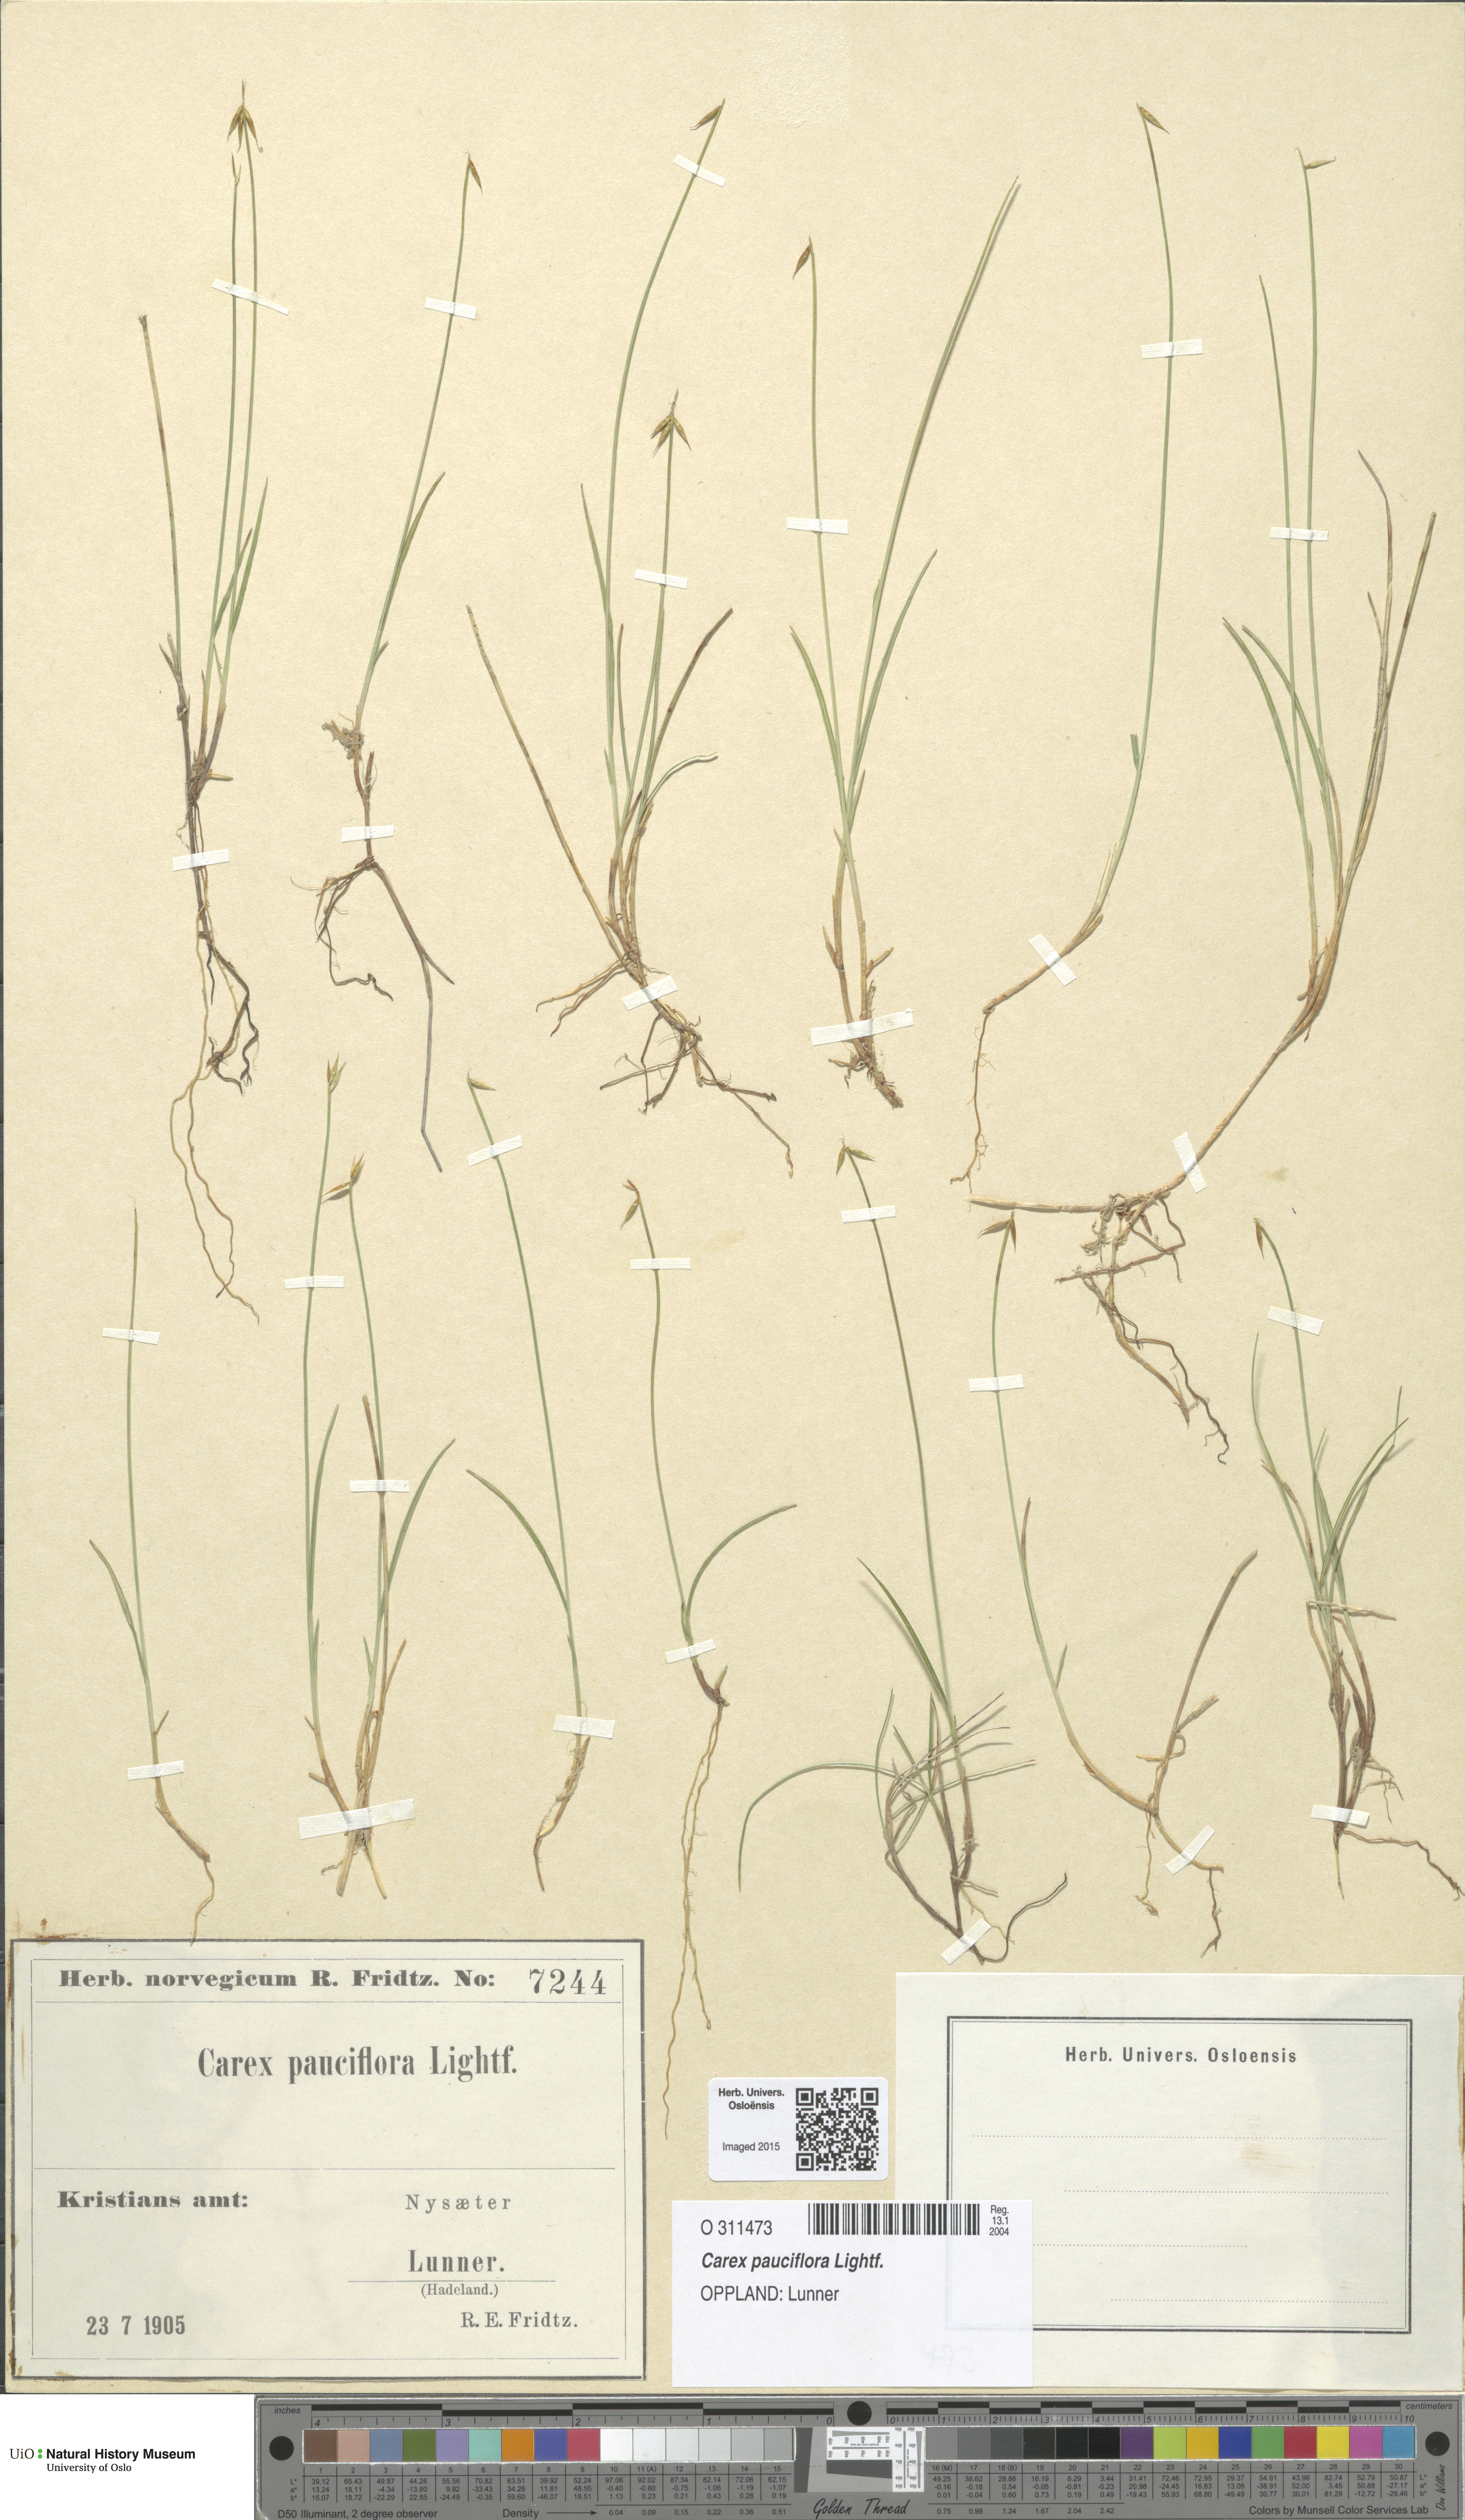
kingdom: Plantae
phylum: Tracheophyta
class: Liliopsida
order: Poales
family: Cyperaceae
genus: Carex
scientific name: Carex pauciflora
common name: Few-flowered sedge
